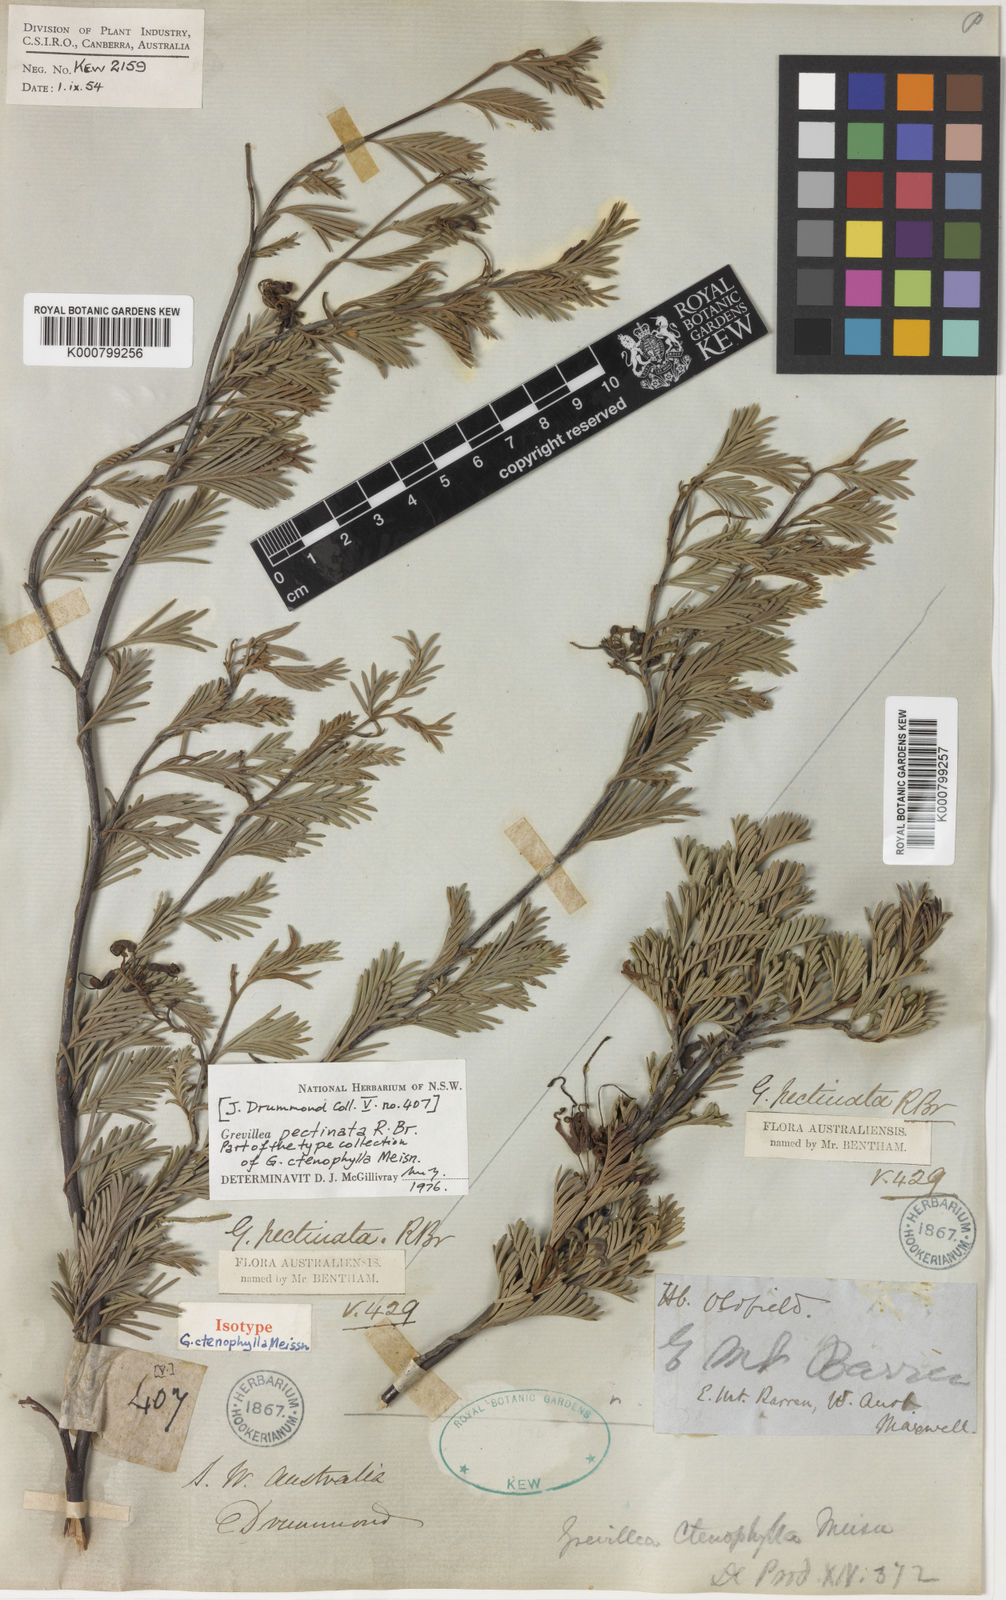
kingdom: Plantae
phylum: Tracheophyta
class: Magnoliopsida
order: Proteales
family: Proteaceae
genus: Grevillea
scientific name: Grevillea pectinata
